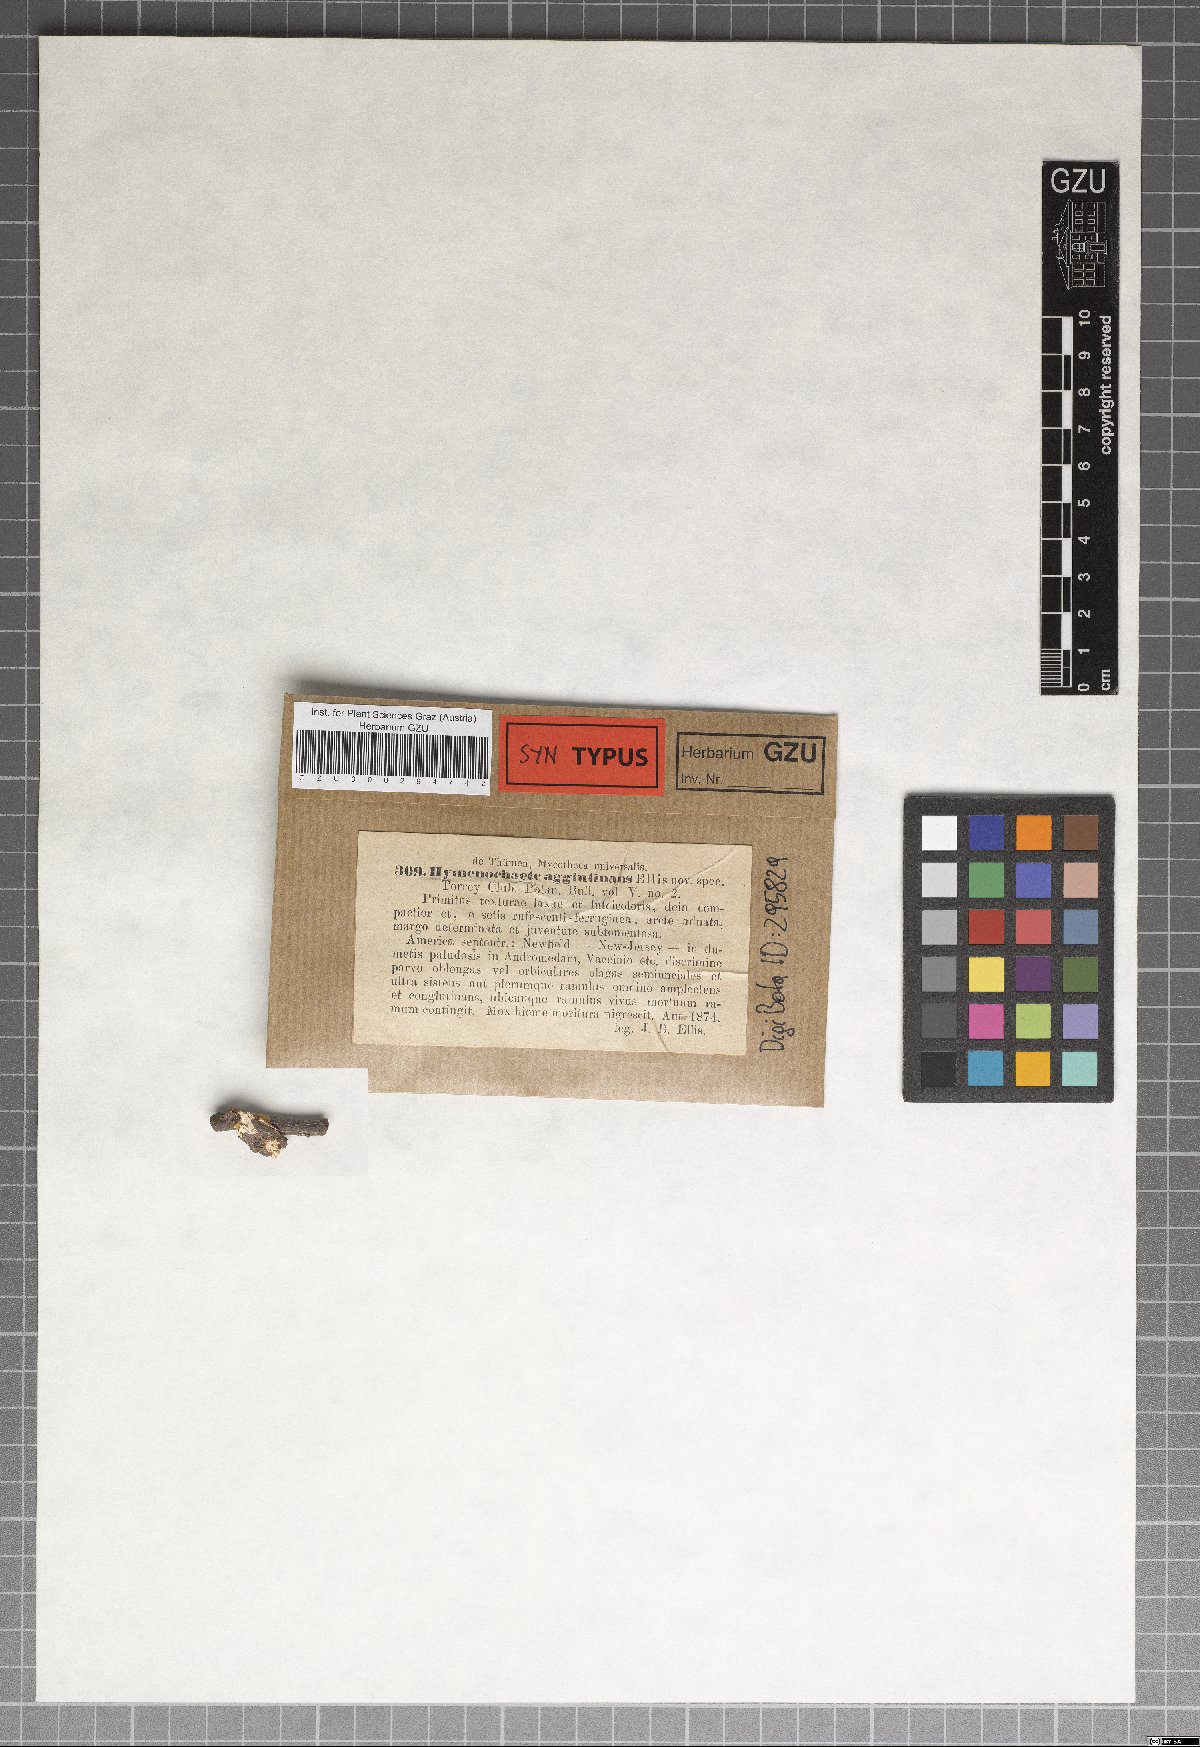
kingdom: Fungi
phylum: Basidiomycota
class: Agaricomycetes
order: Hymenochaetales
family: Hymenochaetaceae
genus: Hydnoporia
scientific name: Hydnoporia corrugata
